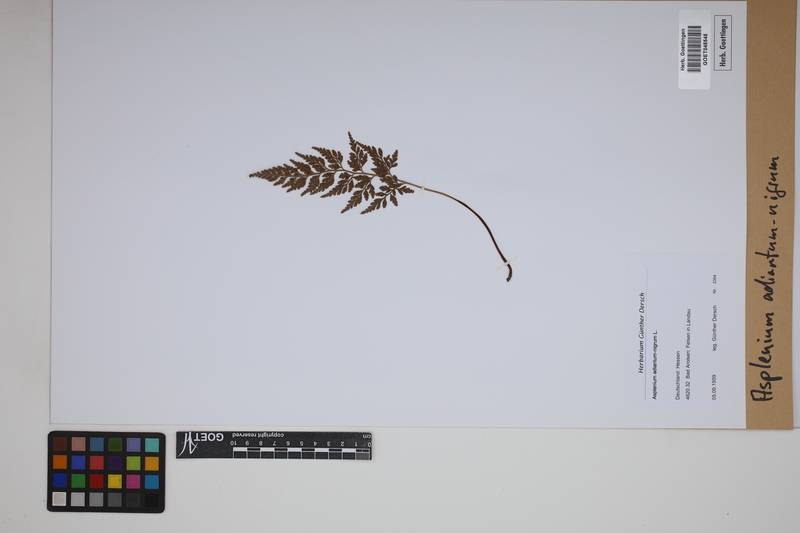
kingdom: Plantae
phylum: Tracheophyta
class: Polypodiopsida
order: Polypodiales
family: Aspleniaceae
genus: Asplenium
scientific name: Asplenium adiantum-nigrum
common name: Black spleenwort
